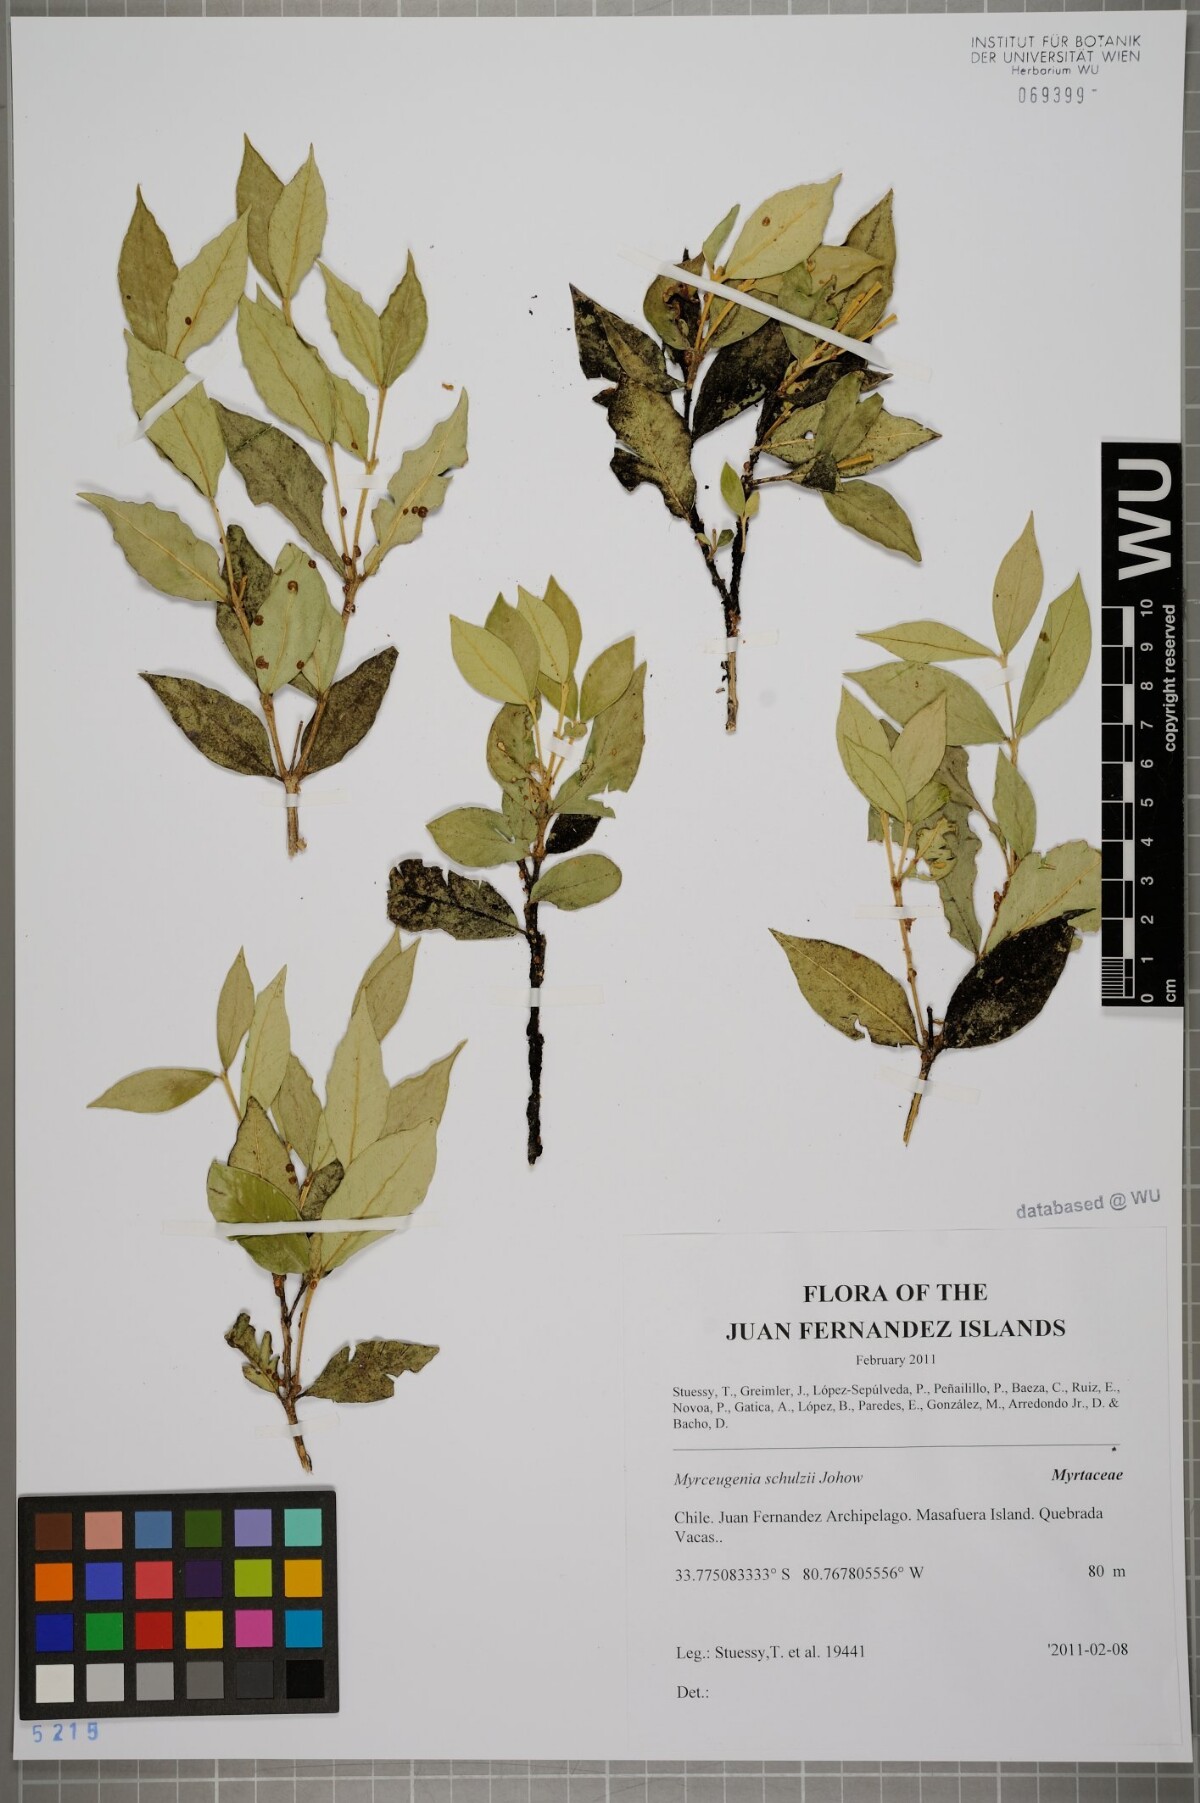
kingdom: Plantae
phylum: Tracheophyta
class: Magnoliopsida
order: Myrtales
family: Myrtaceae
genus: Myrceugenia
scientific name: Myrceugenia schulzei
